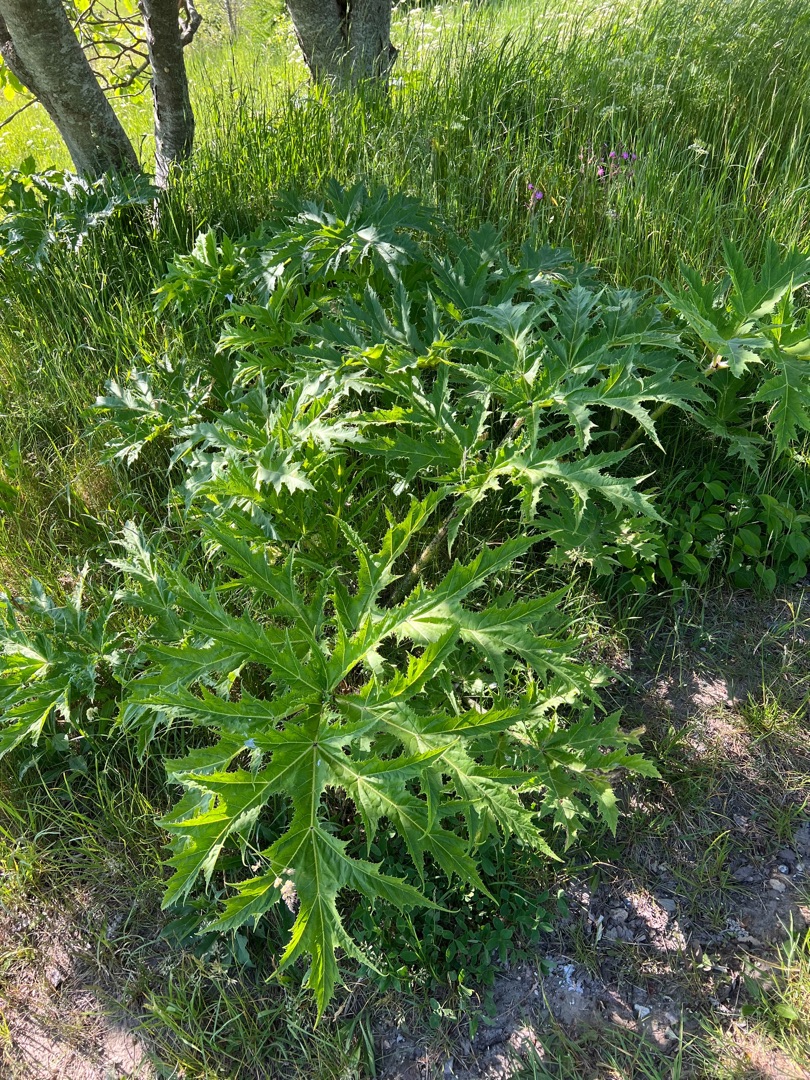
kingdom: Plantae
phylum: Tracheophyta
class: Magnoliopsida
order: Apiales
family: Apiaceae
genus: Heracleum
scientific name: Heracleum mantegazzianum
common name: Kæmpe-bjørneklo
